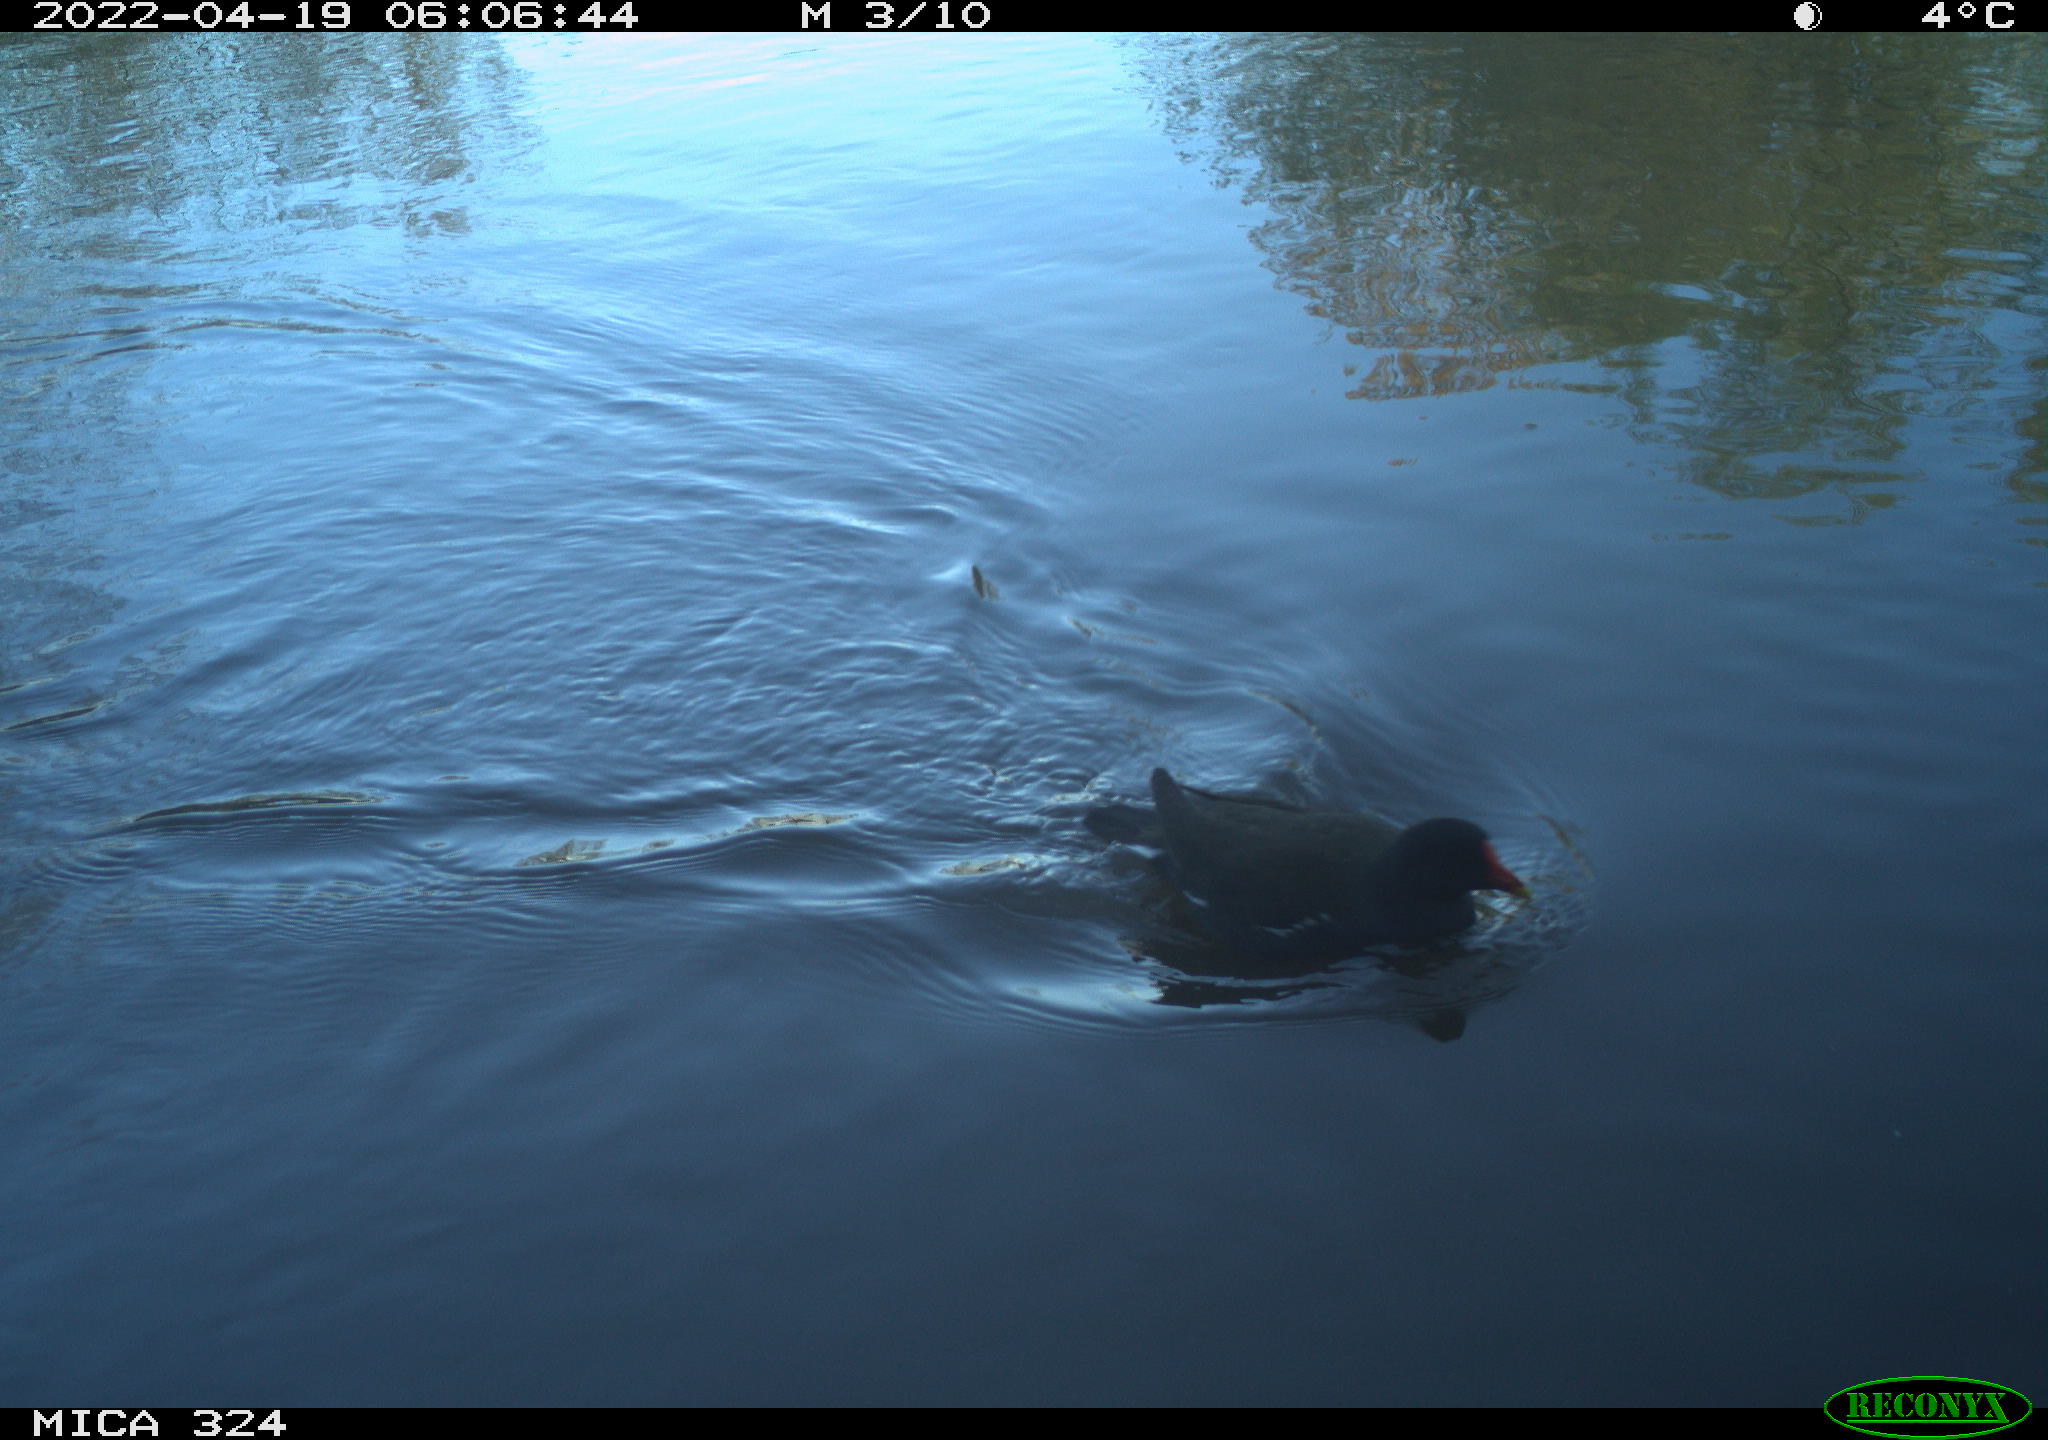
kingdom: Animalia
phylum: Chordata
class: Aves
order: Gruiformes
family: Rallidae
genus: Gallinula
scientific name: Gallinula chloropus
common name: Common moorhen
